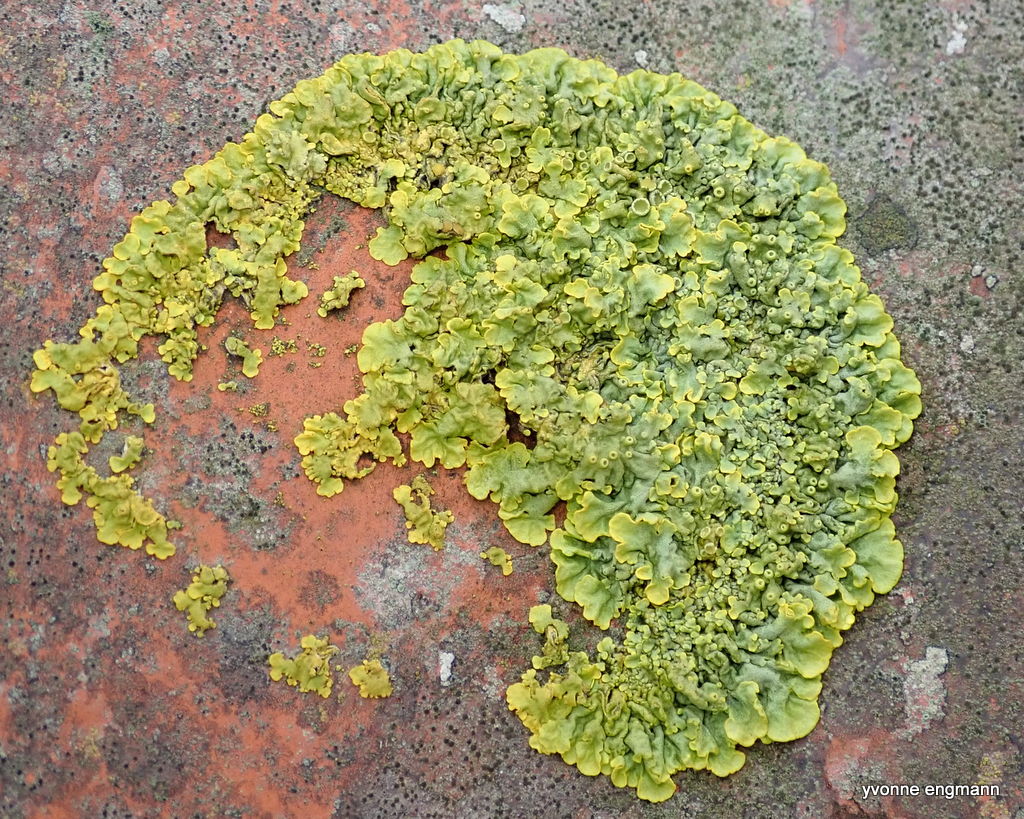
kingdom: Fungi
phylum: Ascomycota
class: Lecanoromycetes
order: Teloschistales
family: Teloschistaceae
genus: Xanthoria
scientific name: Xanthoria parietina
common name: almindelig væggelav
